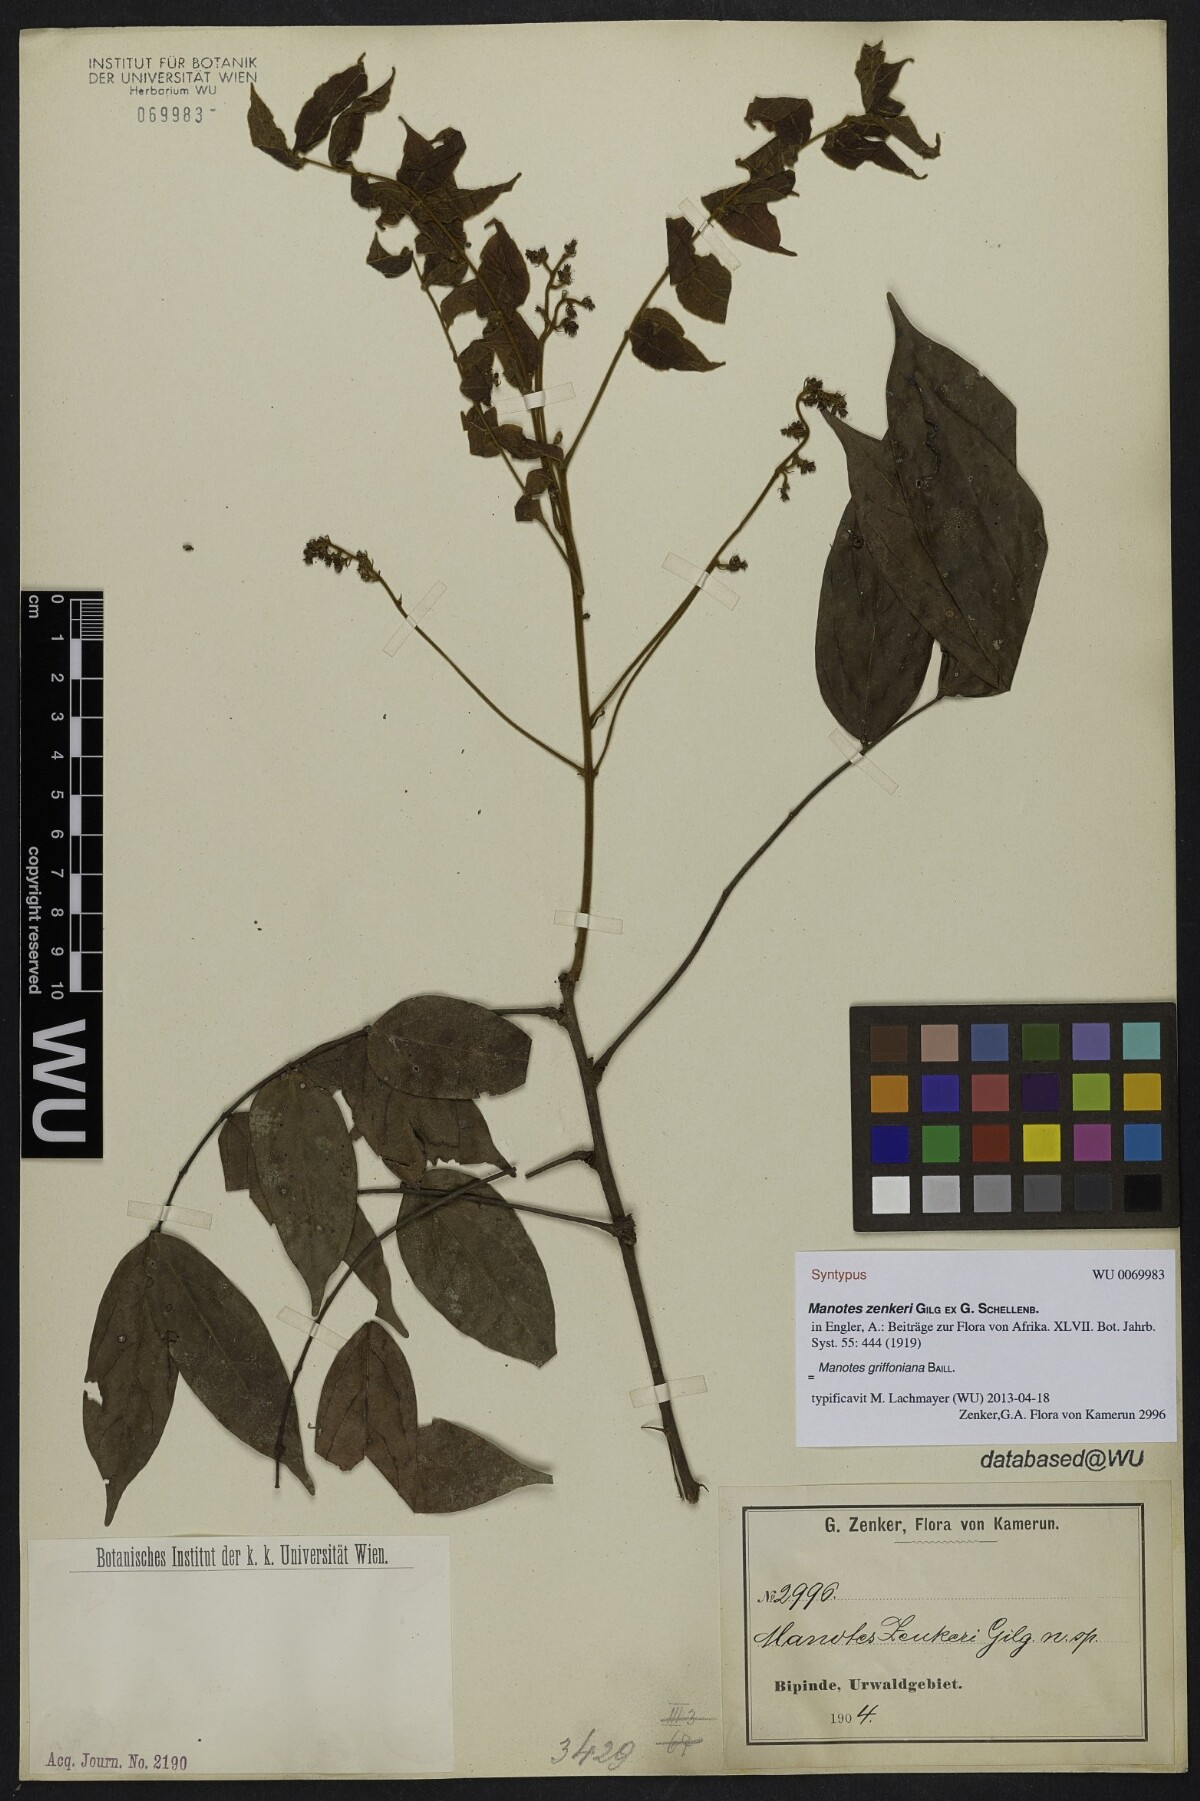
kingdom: Plantae
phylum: Tracheophyta
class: Magnoliopsida
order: Oxalidales
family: Connaraceae
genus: Manotes
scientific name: Manotes griffoniana
